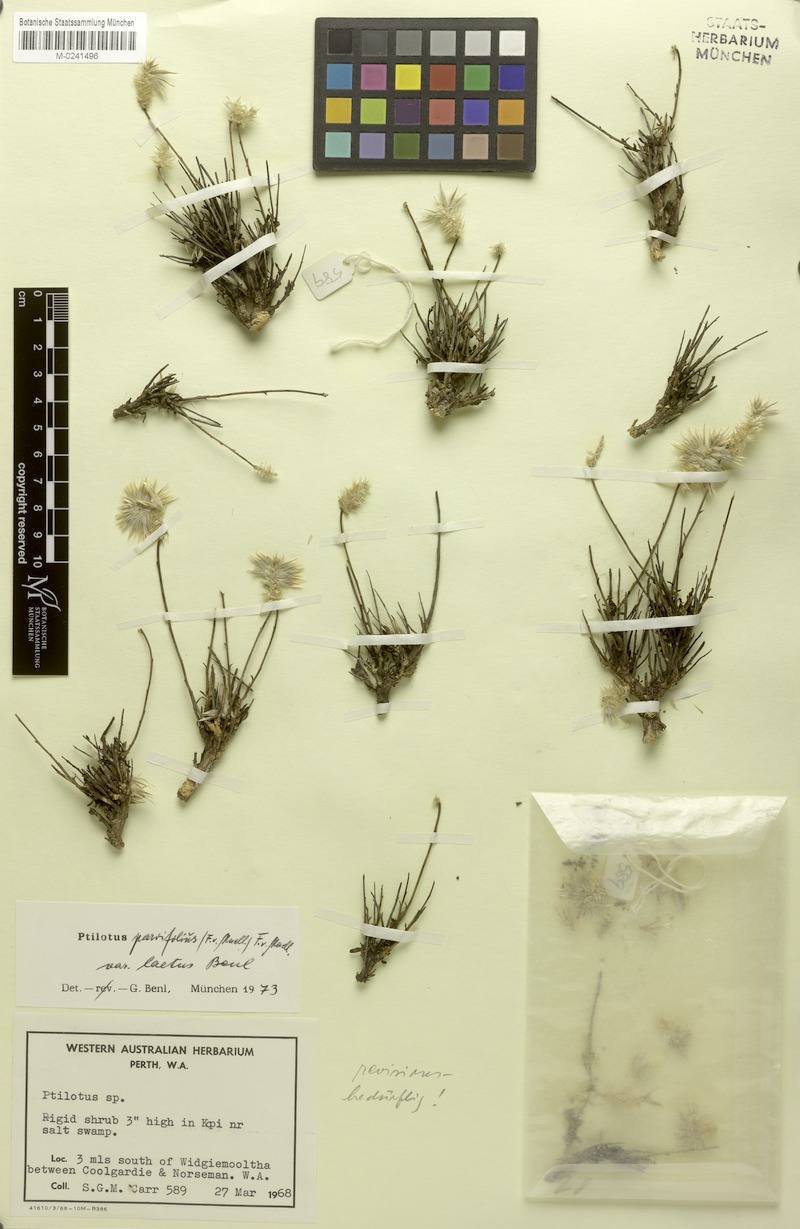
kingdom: Plantae
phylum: Tracheophyta
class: Magnoliopsida
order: Caryophyllales
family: Amaranthaceae
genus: Ptilotus
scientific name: Ptilotus rigidus
